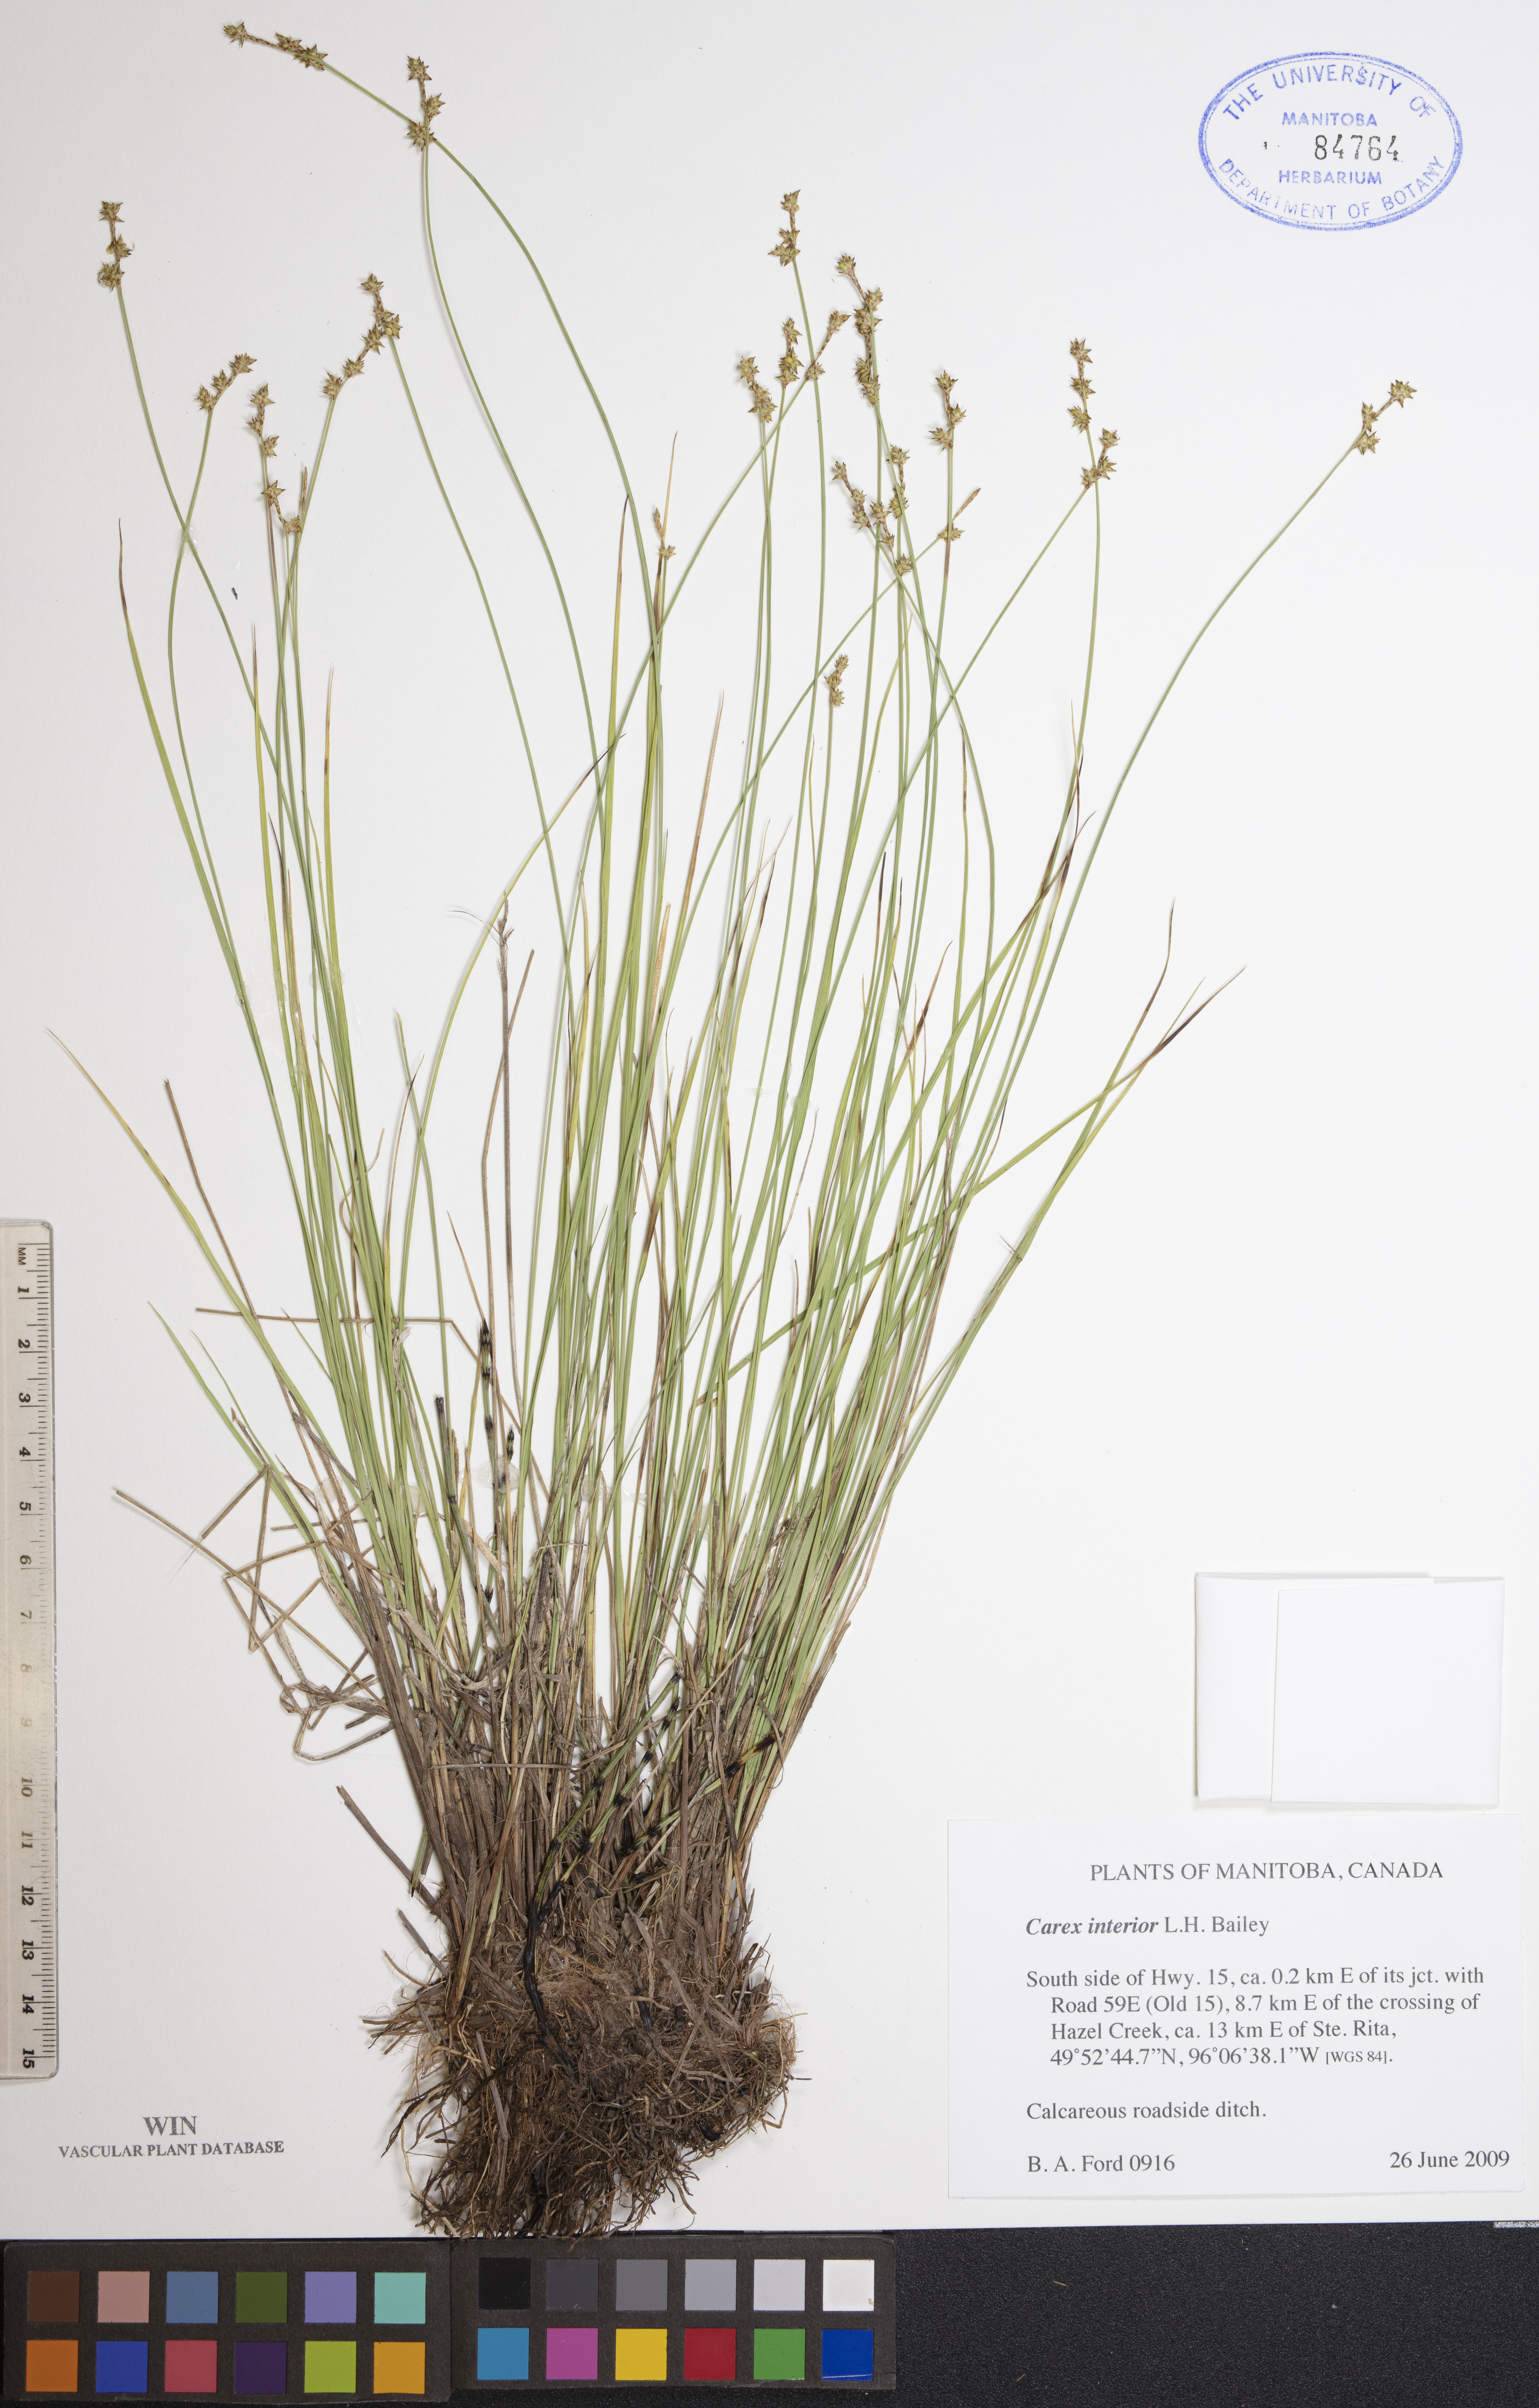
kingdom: Plantae
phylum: Tracheophyta
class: Liliopsida
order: Poales
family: Cyperaceae
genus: Carex
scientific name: Carex interior
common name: Inland sedge
